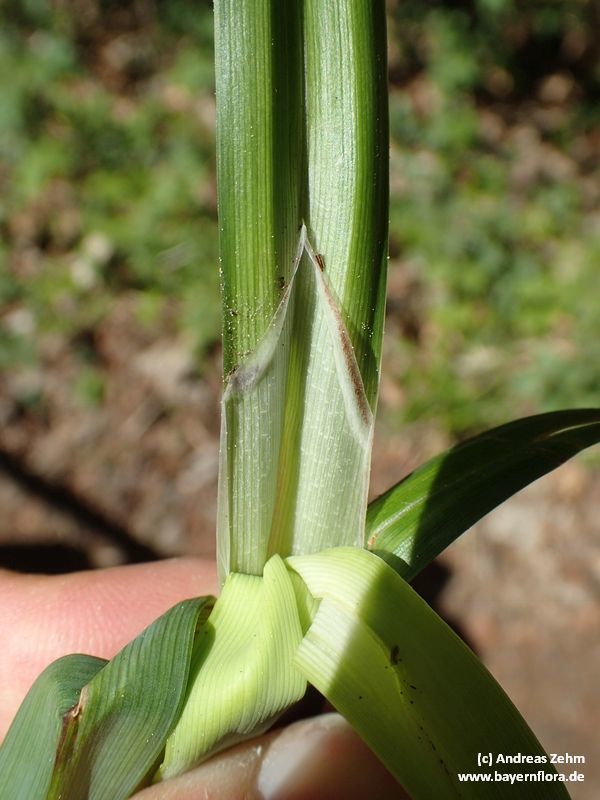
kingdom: Plantae
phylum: Tracheophyta
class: Liliopsida
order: Poales
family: Cyperaceae
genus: Carex
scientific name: Carex agastachys
